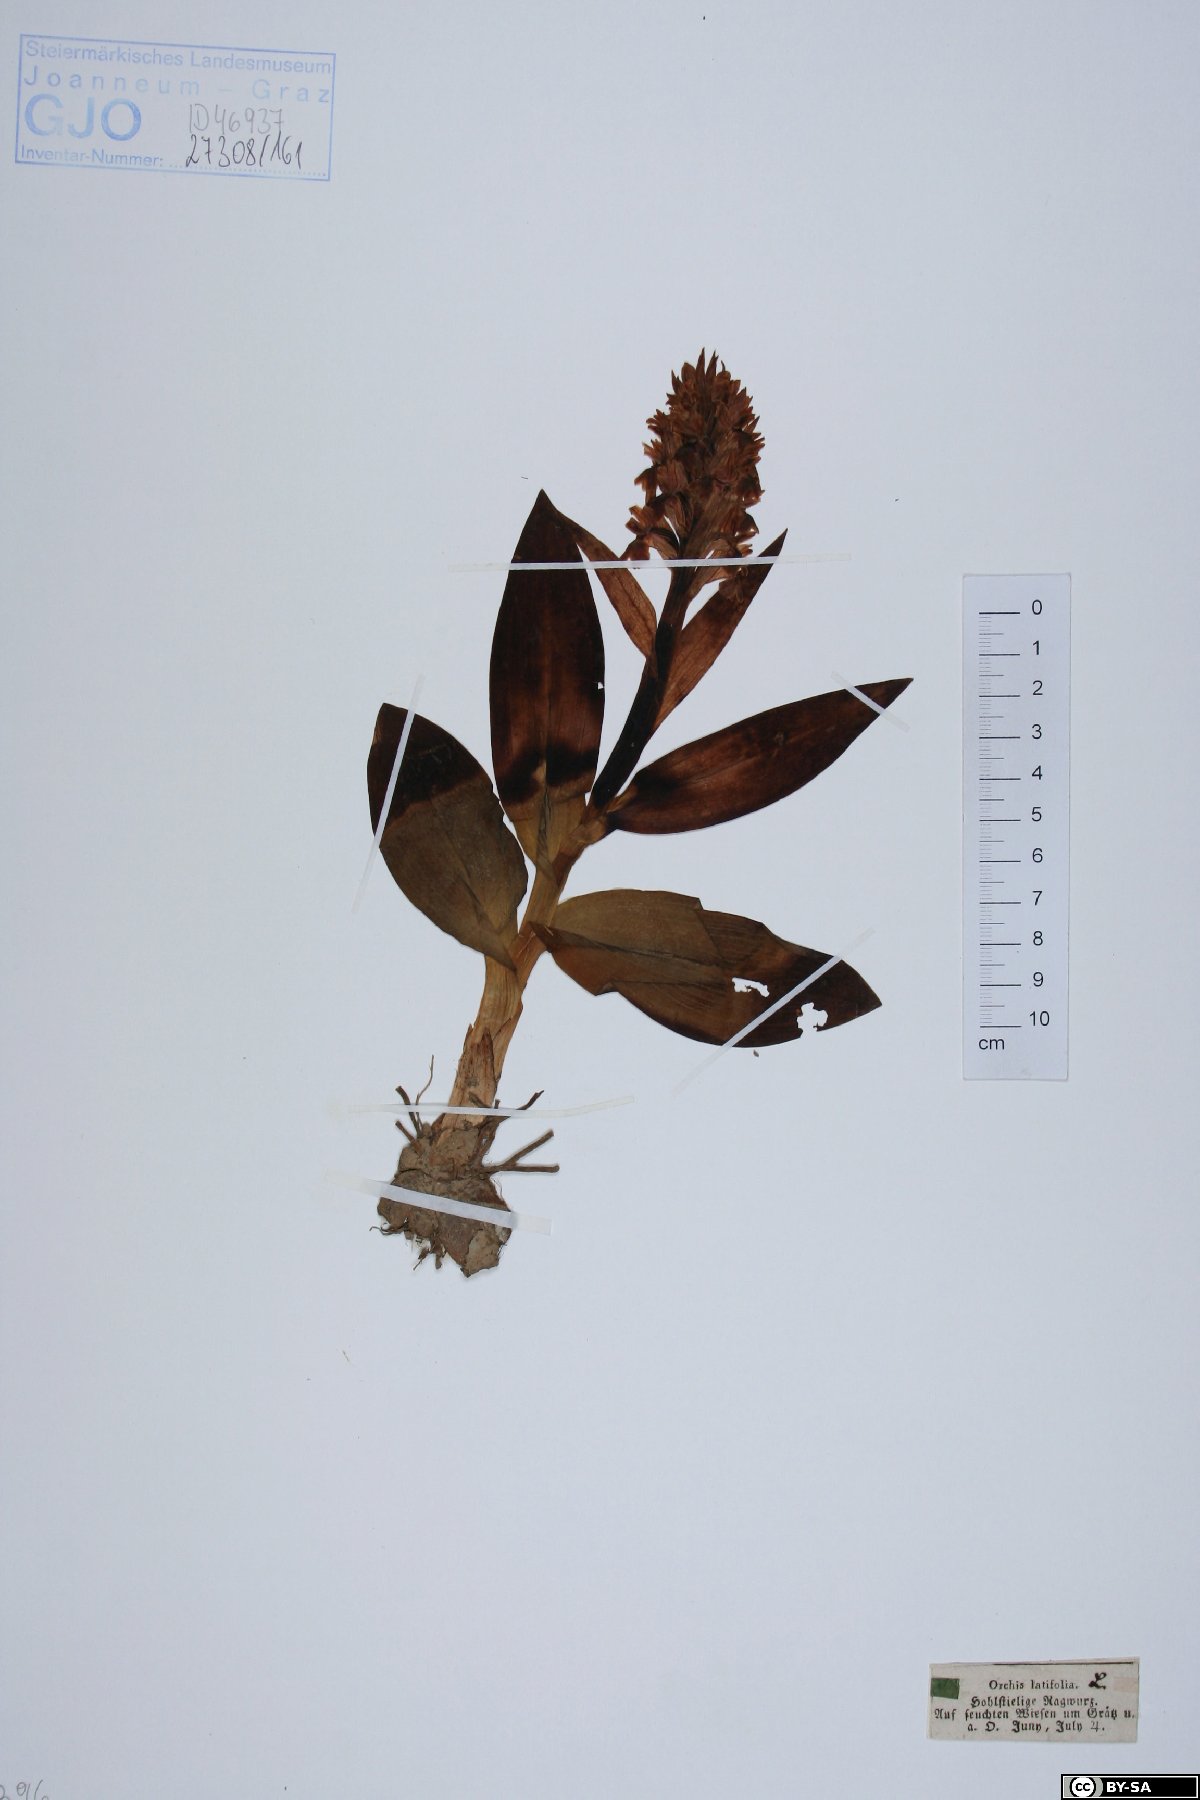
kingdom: Plantae
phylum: Tracheophyta
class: Liliopsida
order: Asparagales
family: Orchidaceae
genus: Dactylorhiza
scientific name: Dactylorhiza incarnata
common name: Early marsh-orchid
